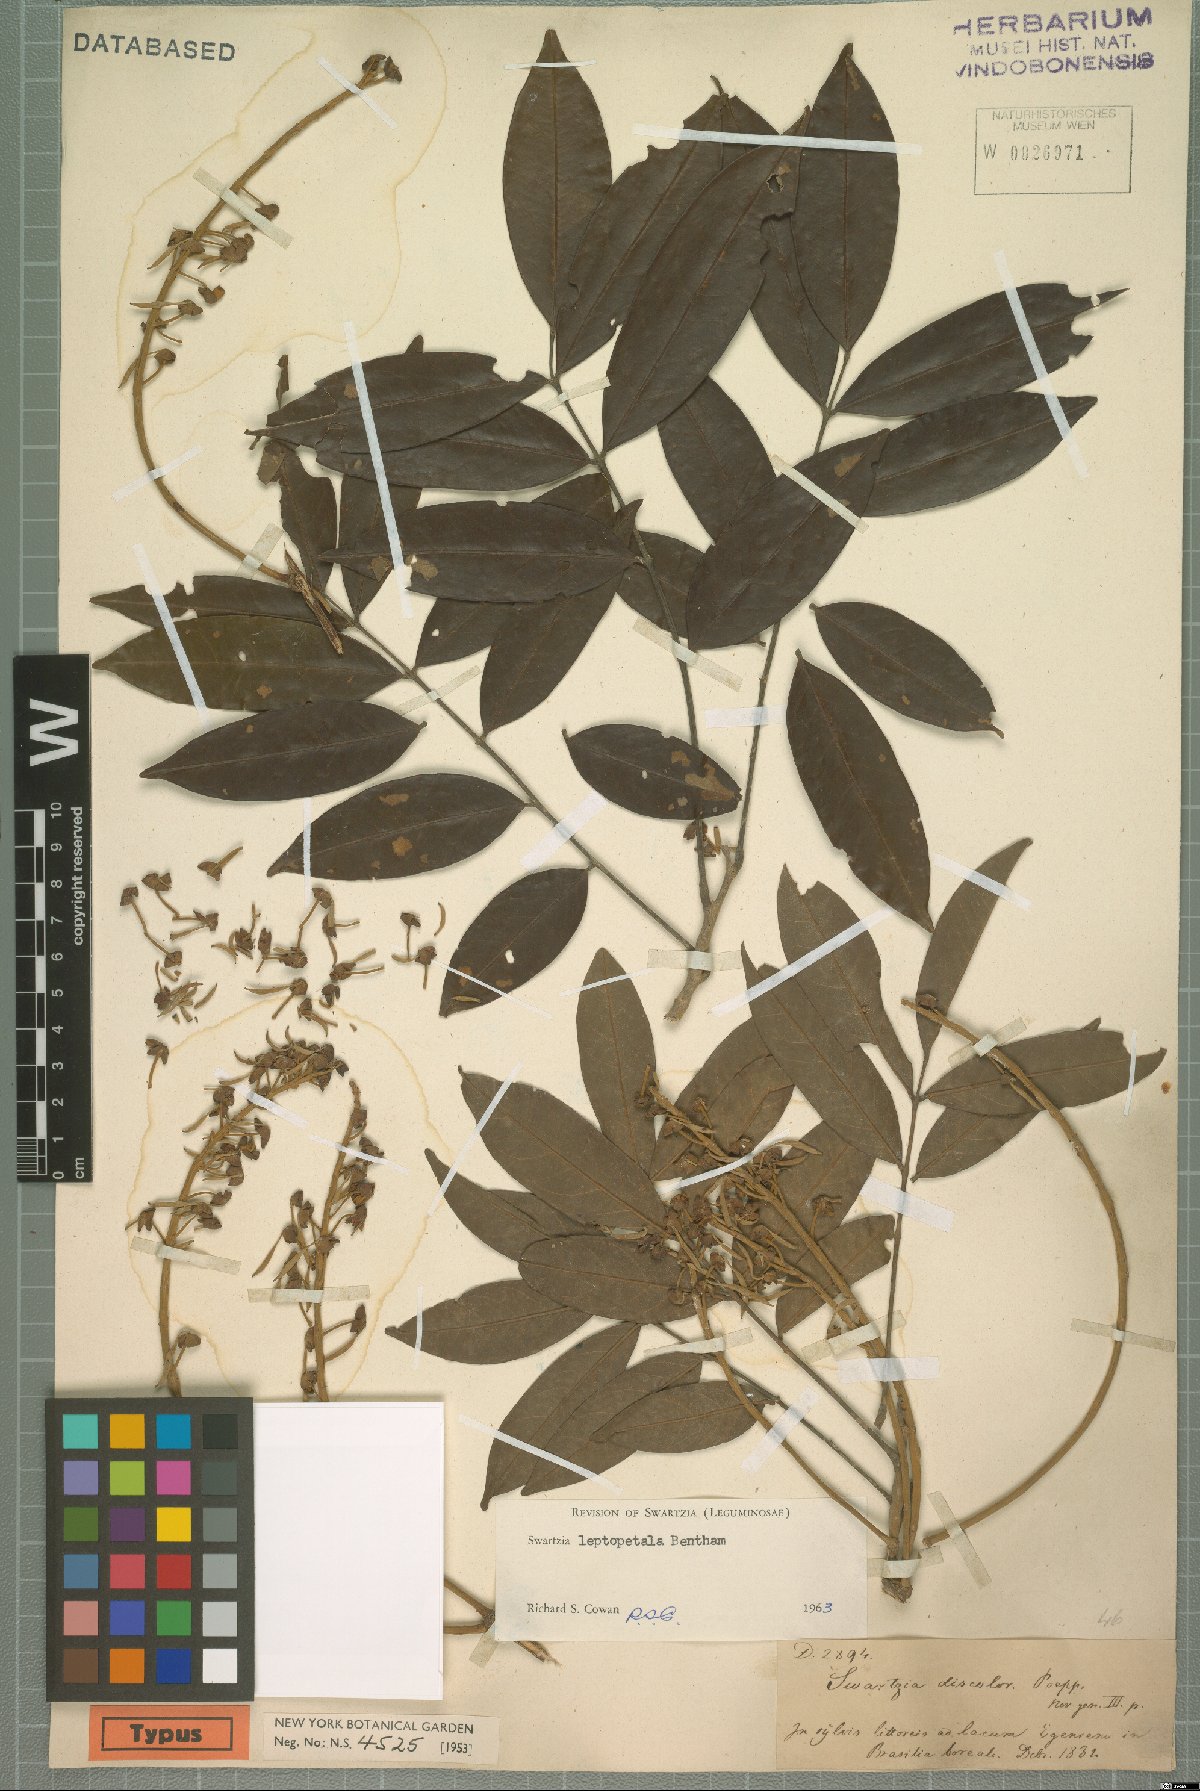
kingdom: Plantae
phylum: Tracheophyta
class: Magnoliopsida
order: Fabales
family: Fabaceae
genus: Swartzia
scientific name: Swartzia leptopetala
